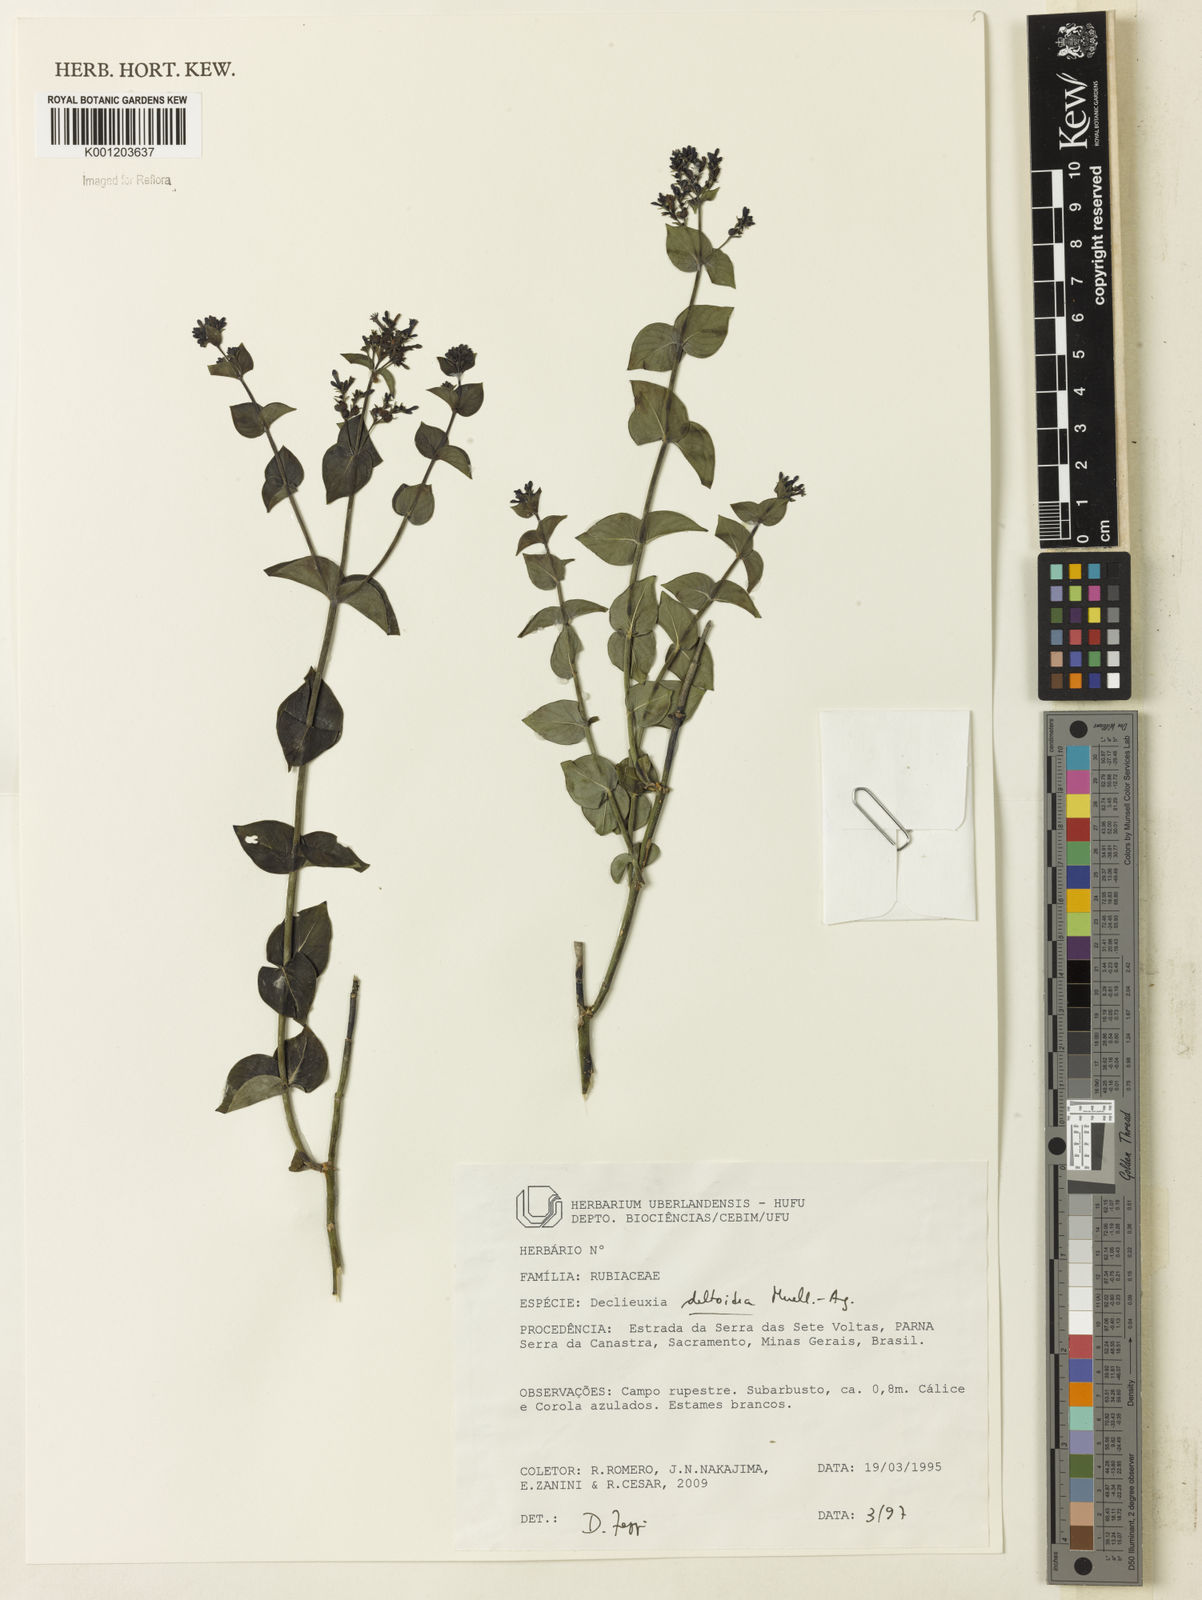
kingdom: Plantae
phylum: Tracheophyta
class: Magnoliopsida
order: Gentianales
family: Rubiaceae
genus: Declieuxia
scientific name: Declieuxia
